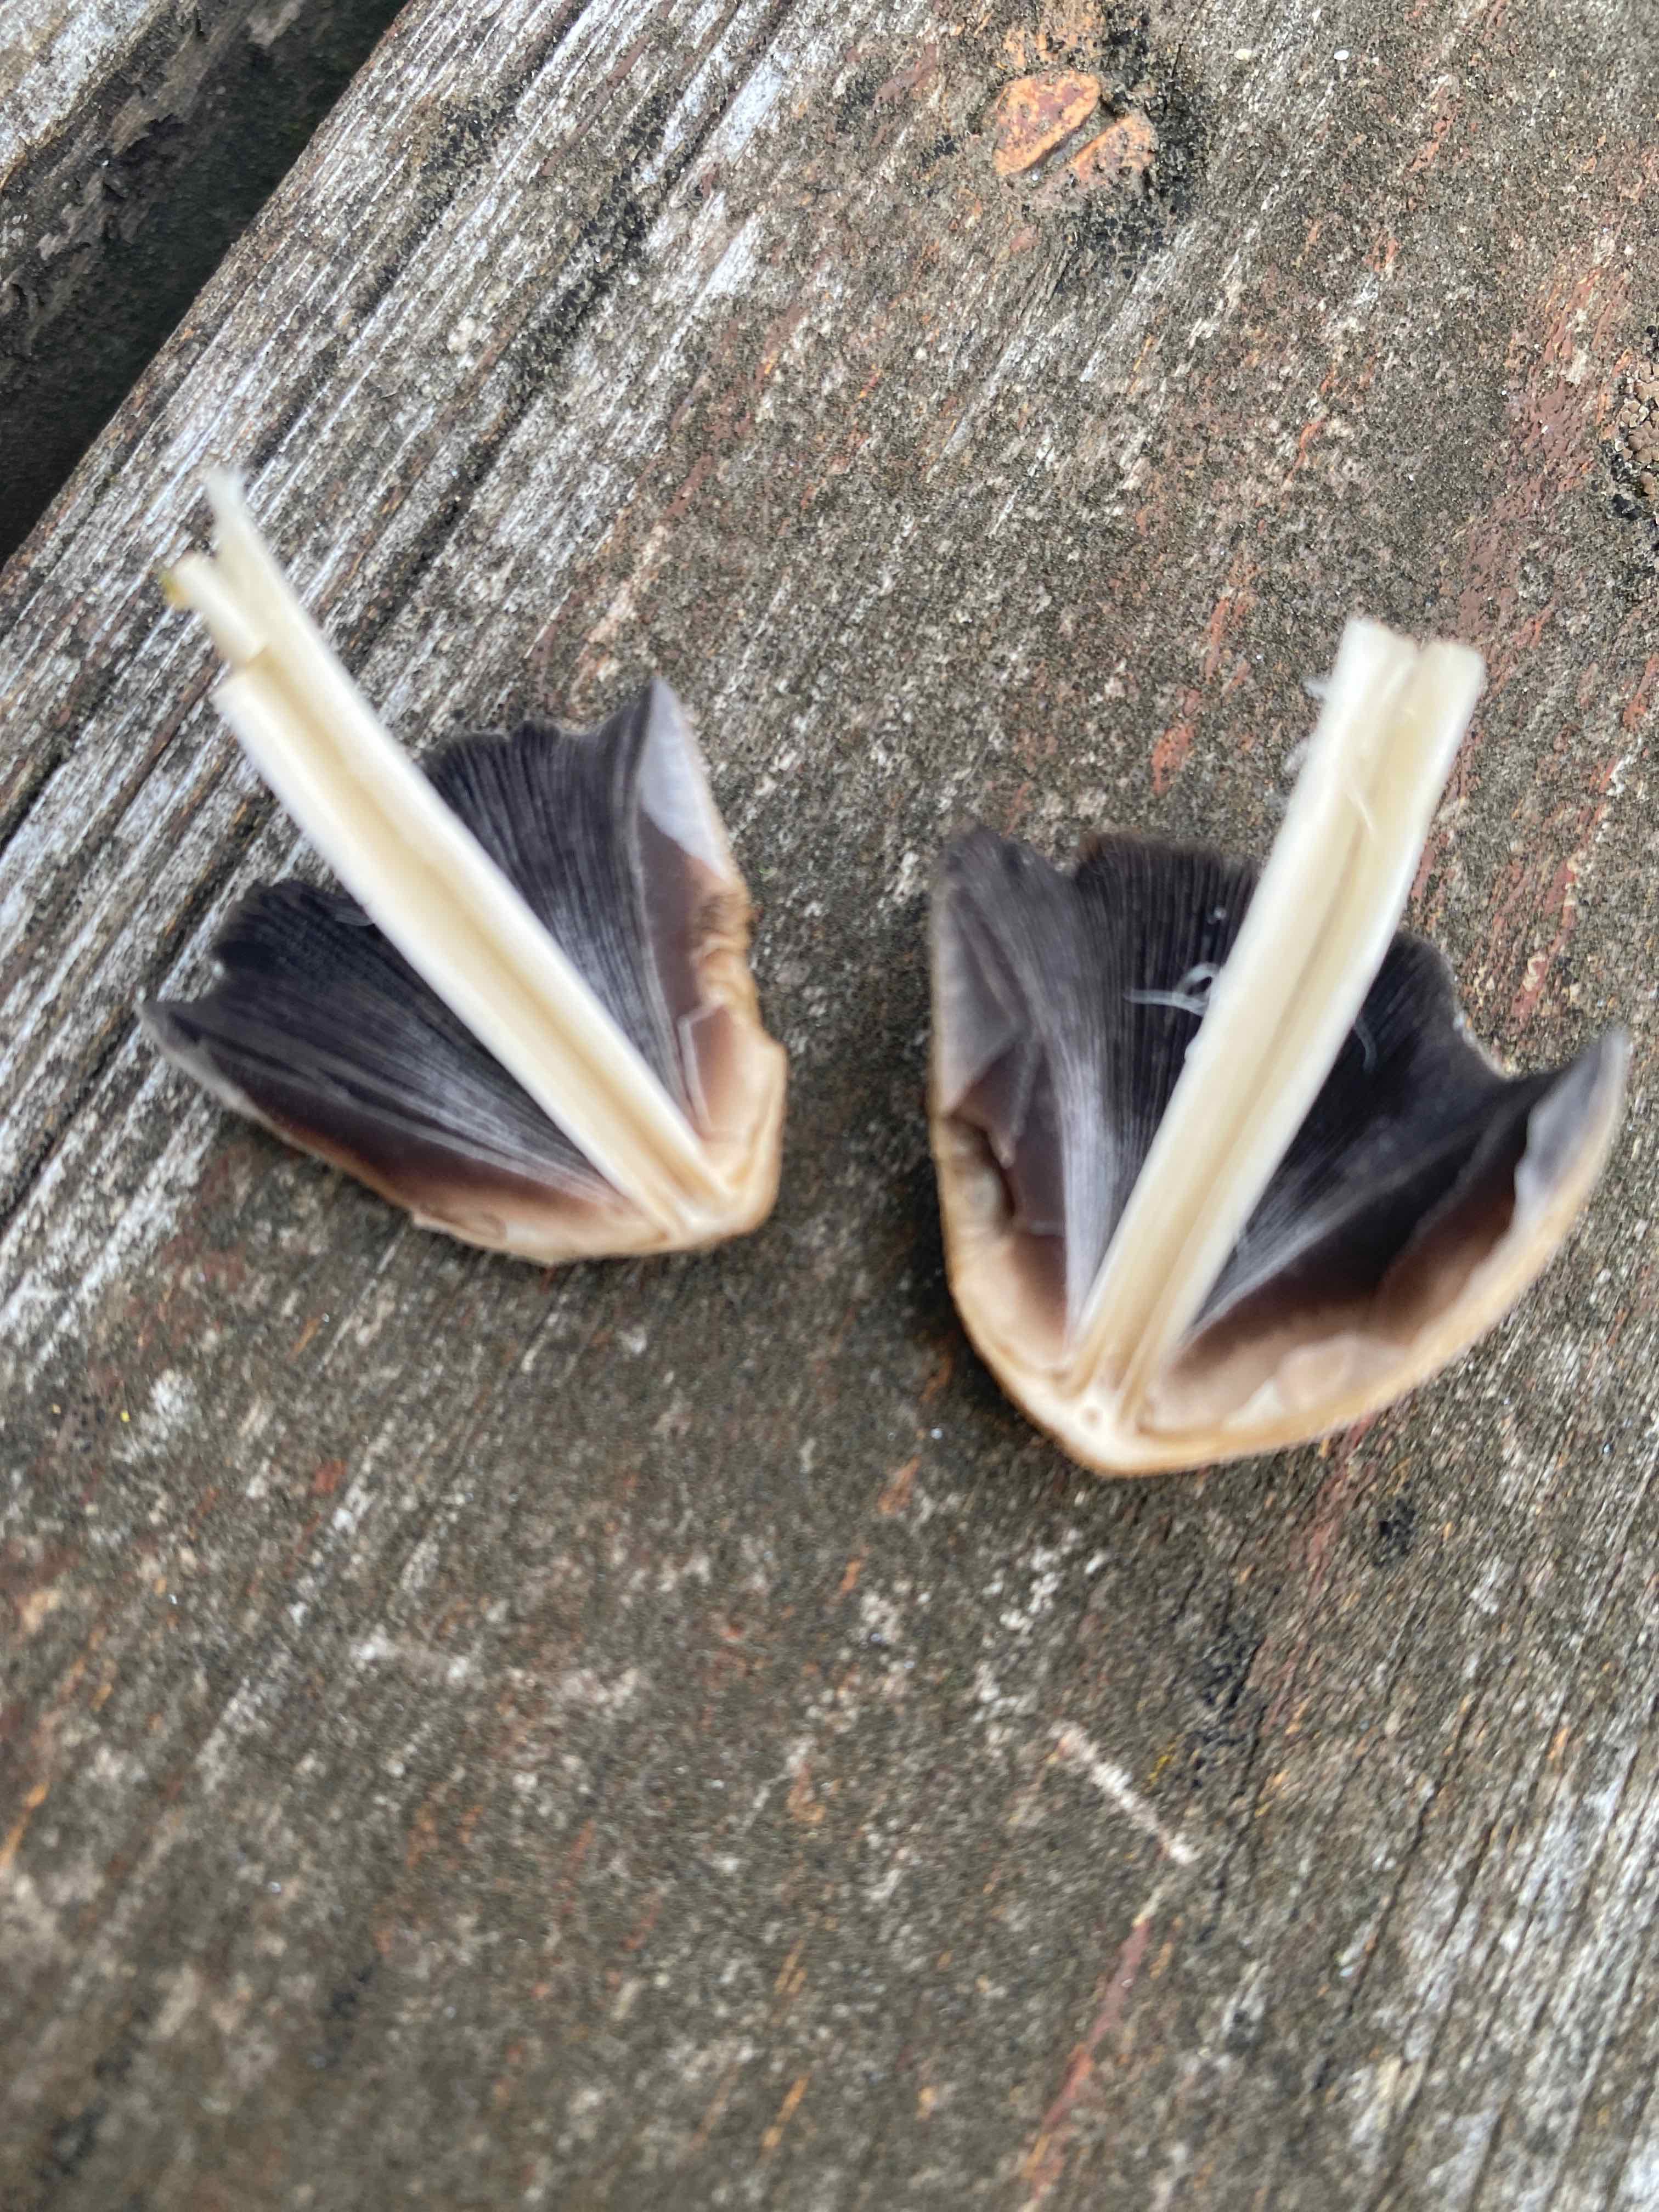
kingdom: Fungi
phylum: Basidiomycota
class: Agaricomycetes
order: Agaricales
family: Psathyrellaceae
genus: Coprinellus
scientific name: Coprinellus micaceus
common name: glimmer-blækhat
